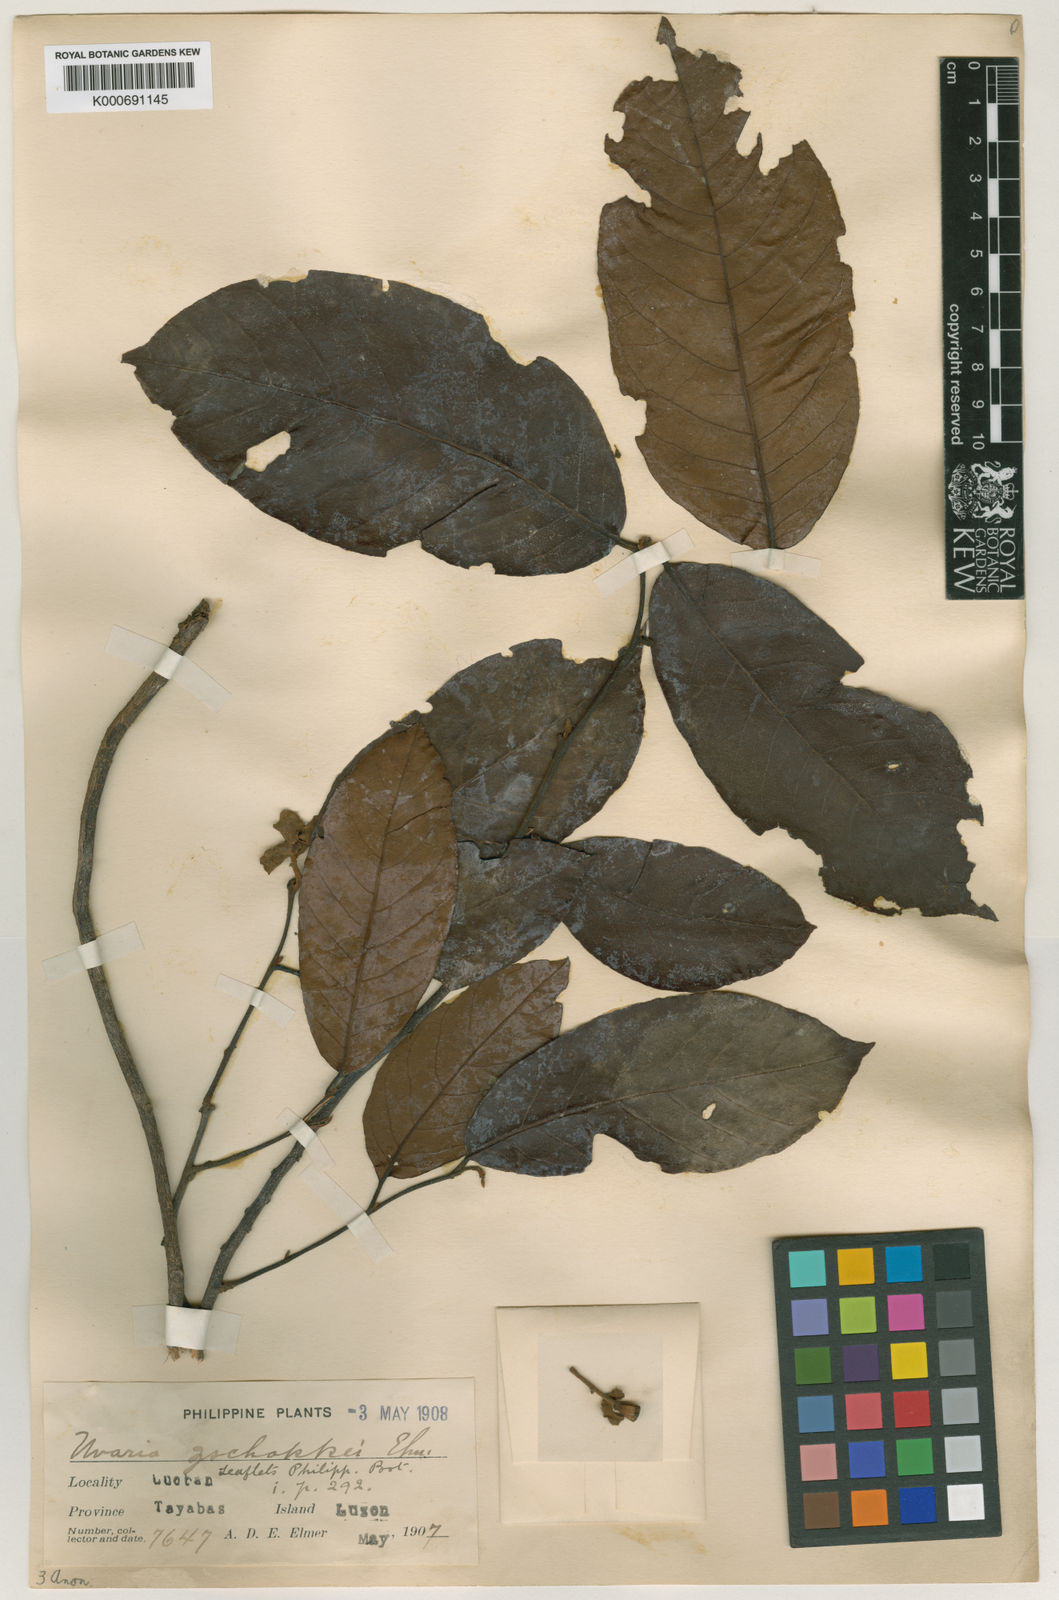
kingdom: Plantae
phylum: Tracheophyta
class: Magnoliopsida
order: Magnoliales
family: Annonaceae
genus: Uvaria
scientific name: Uvaria zschokkei
